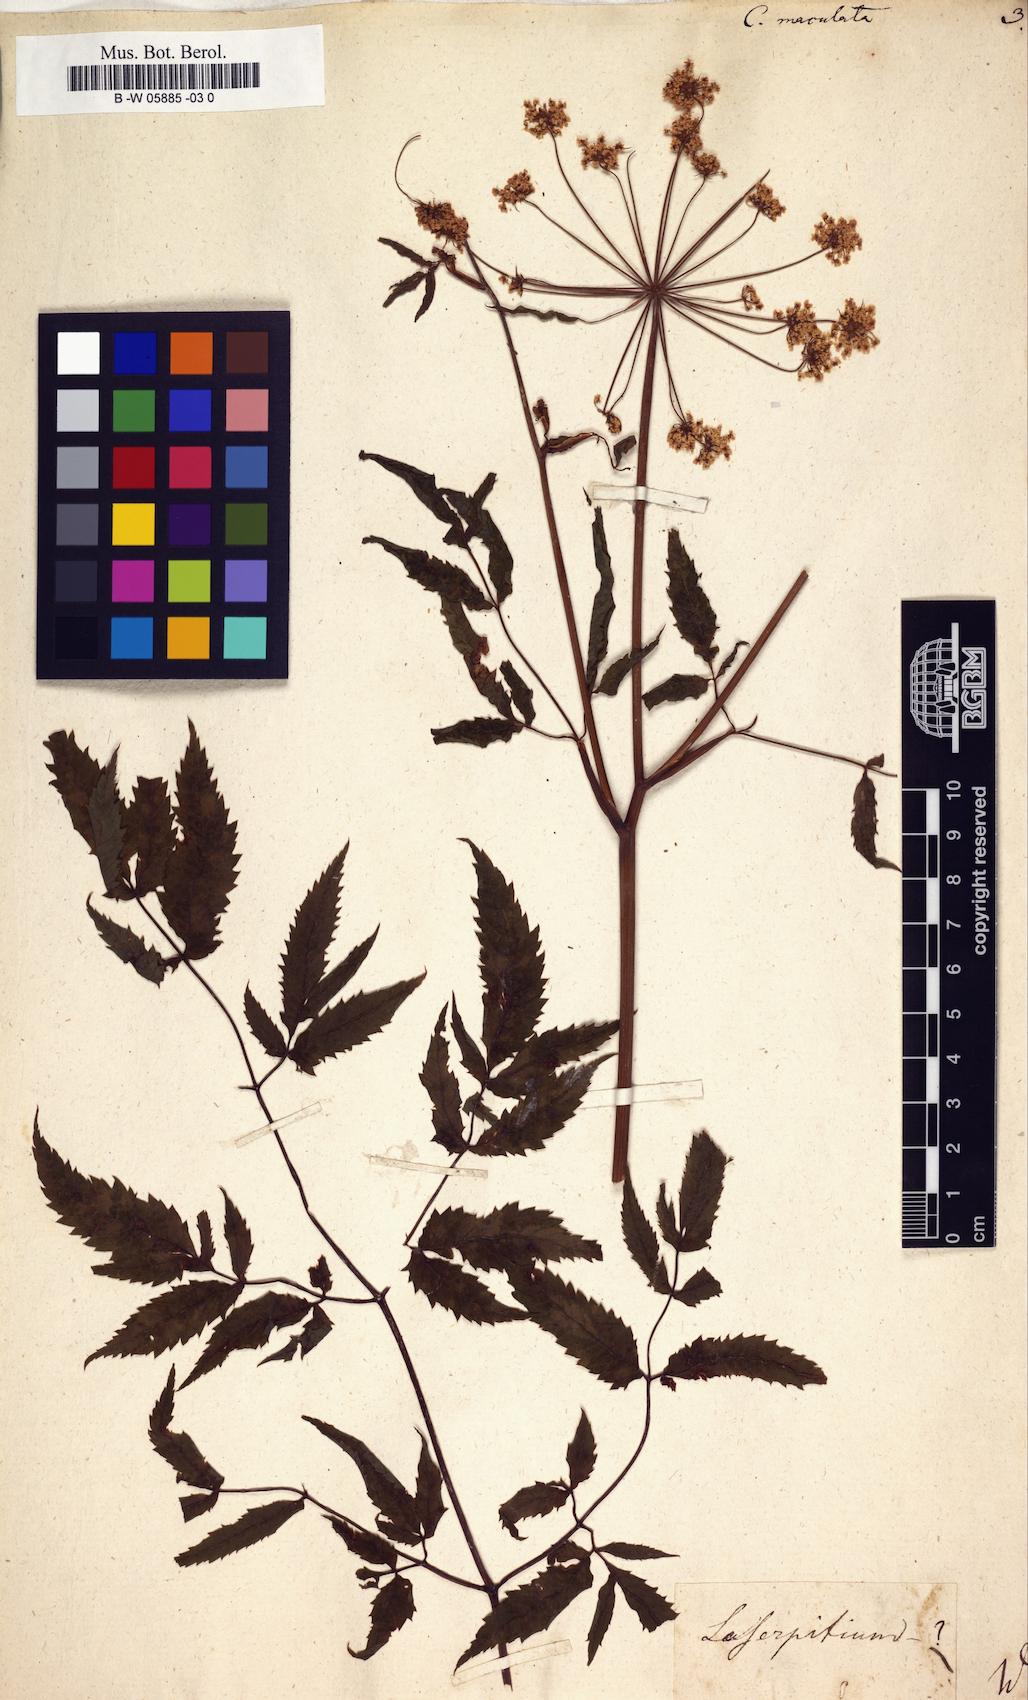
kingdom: Plantae
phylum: Tracheophyta
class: Magnoliopsida
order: Apiales
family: Apiaceae
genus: Cicuta
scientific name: Cicuta maculata
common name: Spotted cowbane
